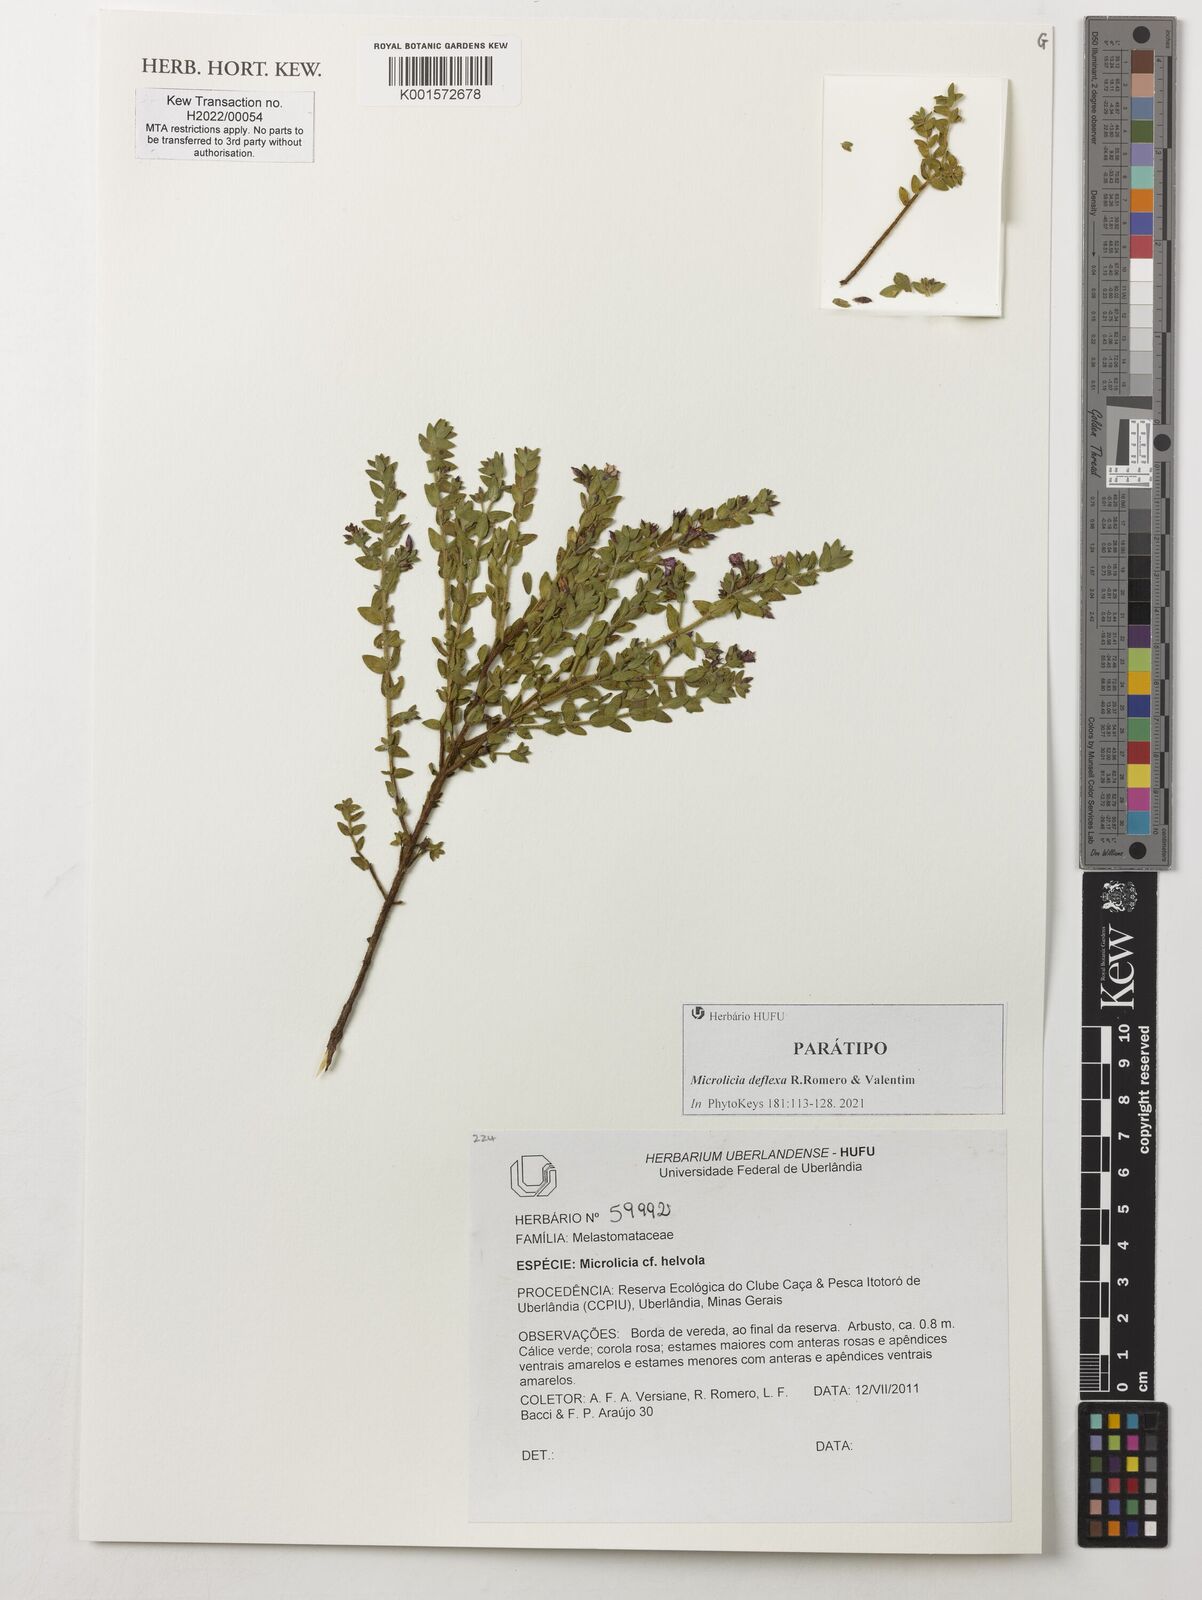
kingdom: Plantae
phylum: Tracheophyta
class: Magnoliopsida
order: Myrtales
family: Melastomataceae
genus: Microlicia
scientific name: Microlicia
